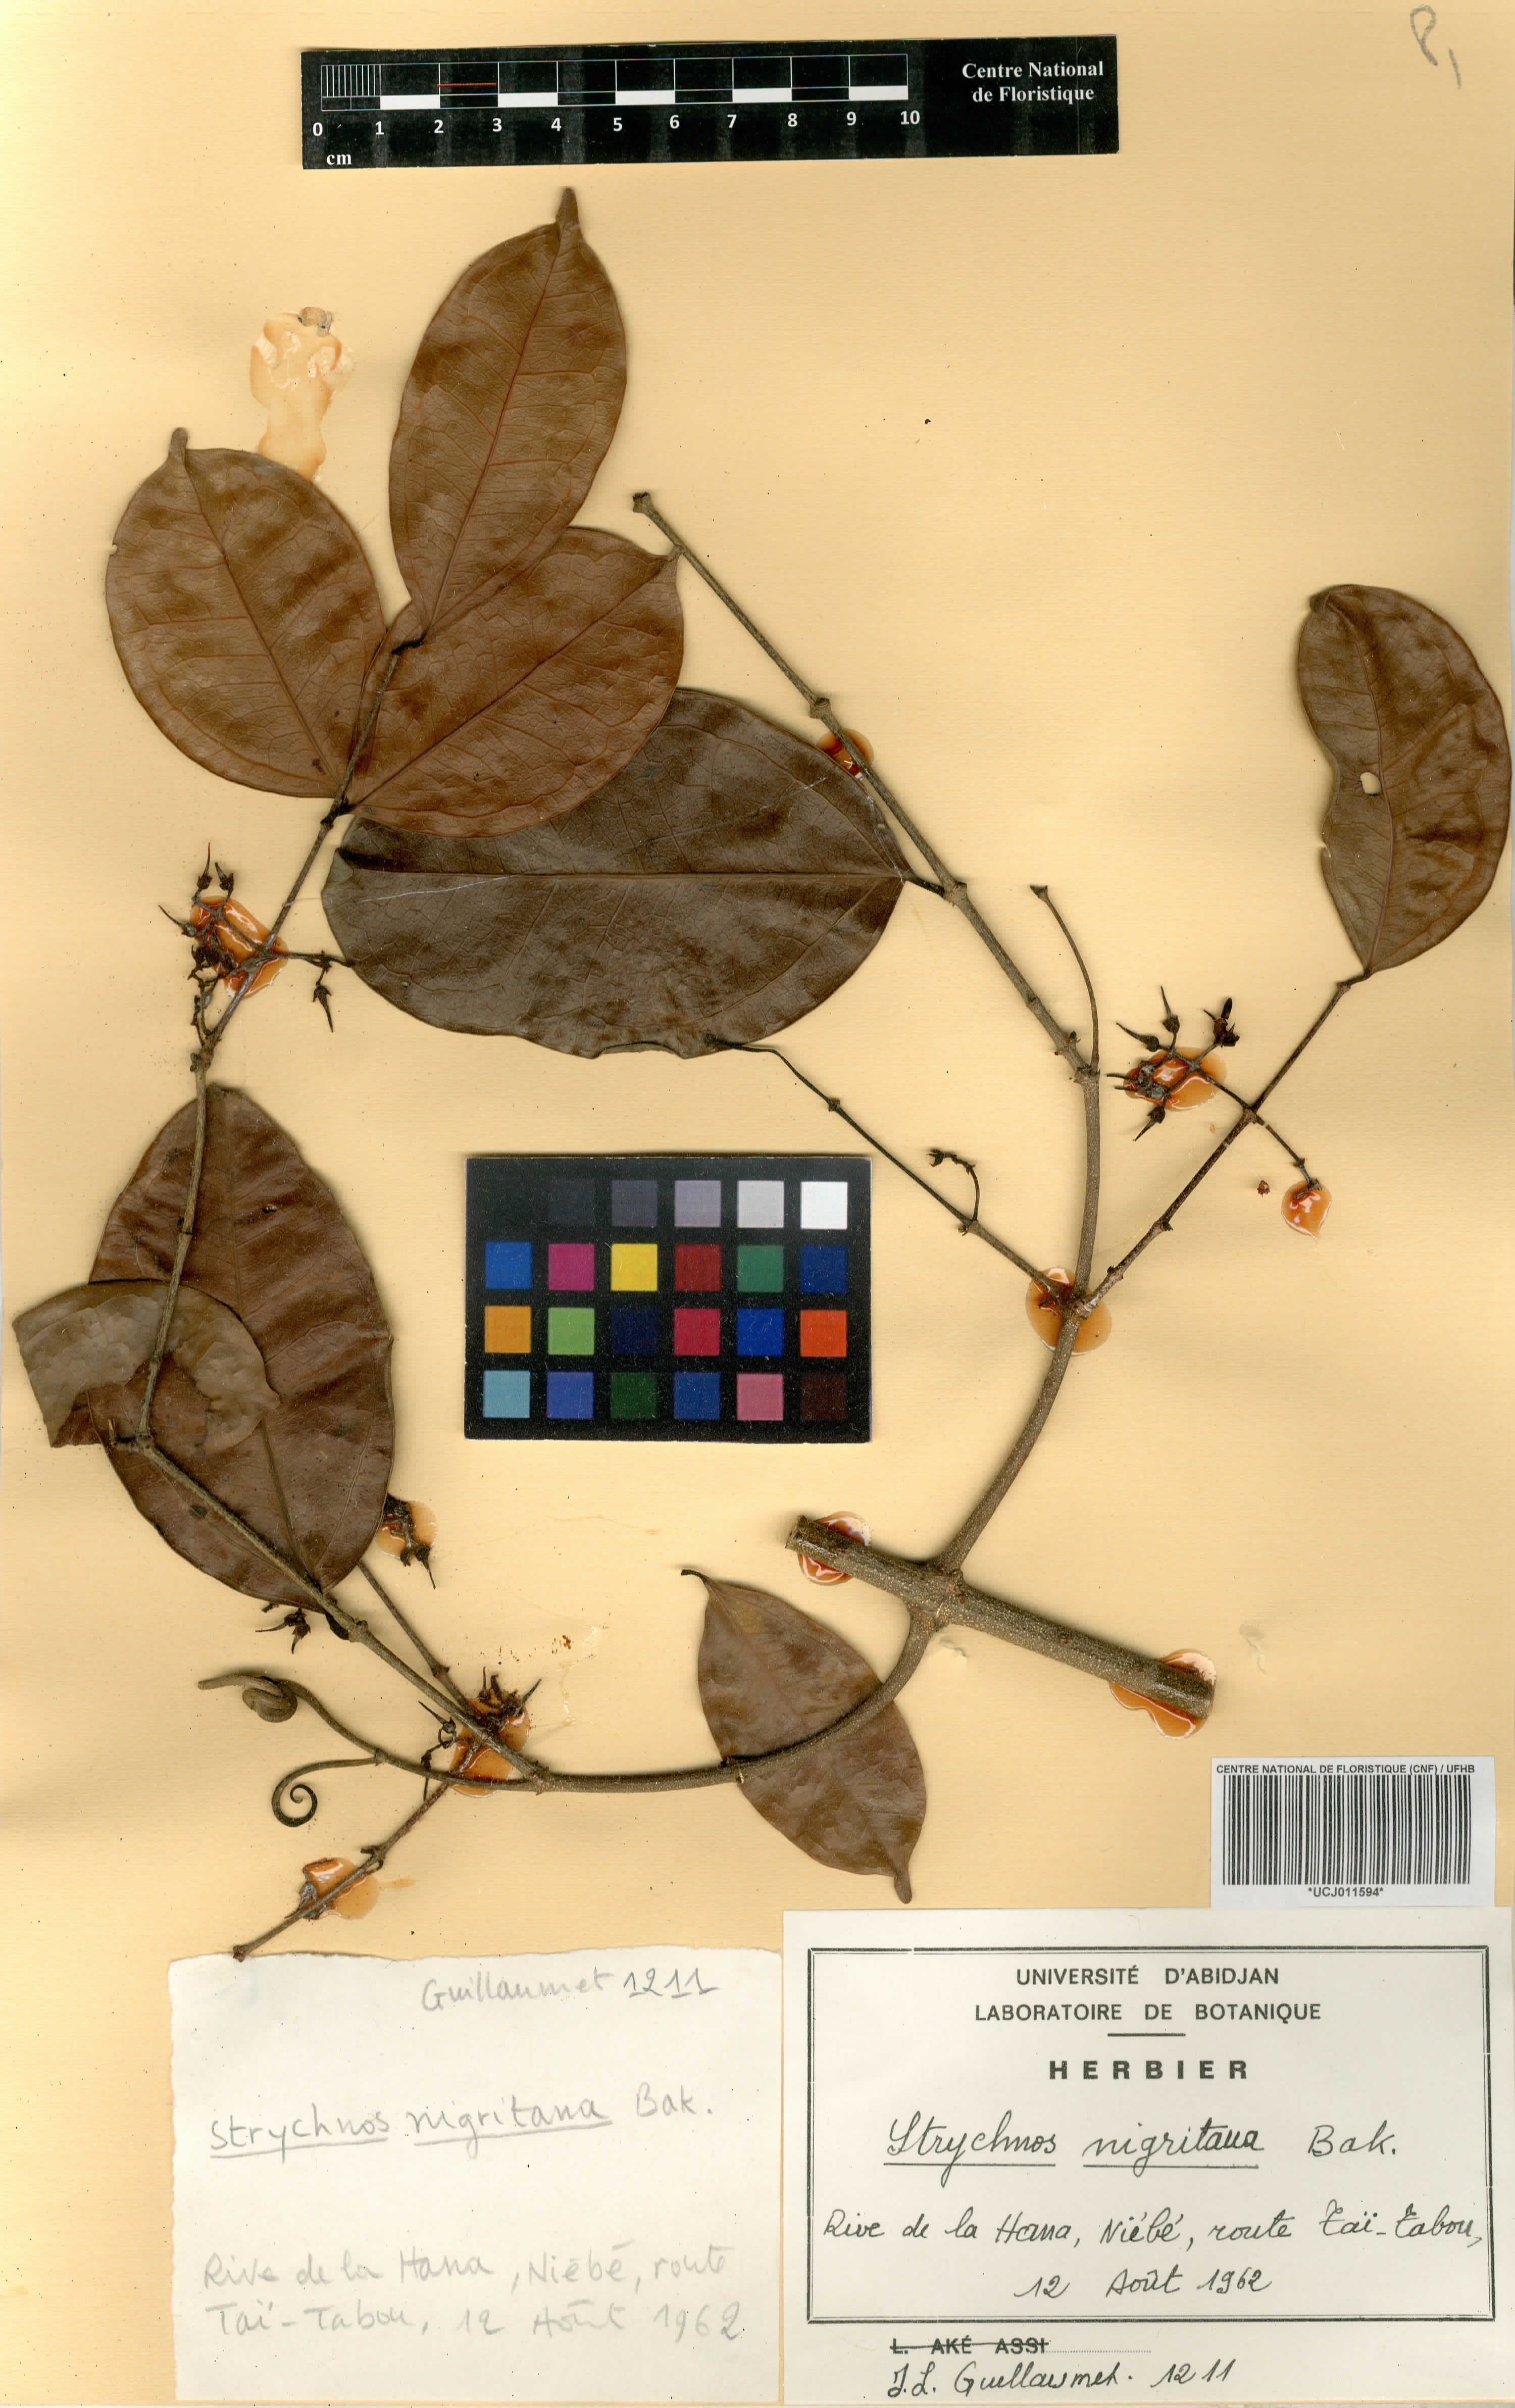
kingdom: Plantae
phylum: Tracheophyta
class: Magnoliopsida
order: Gentianales
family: Loganiaceae
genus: Strychnos
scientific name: Strychnos nigritana
